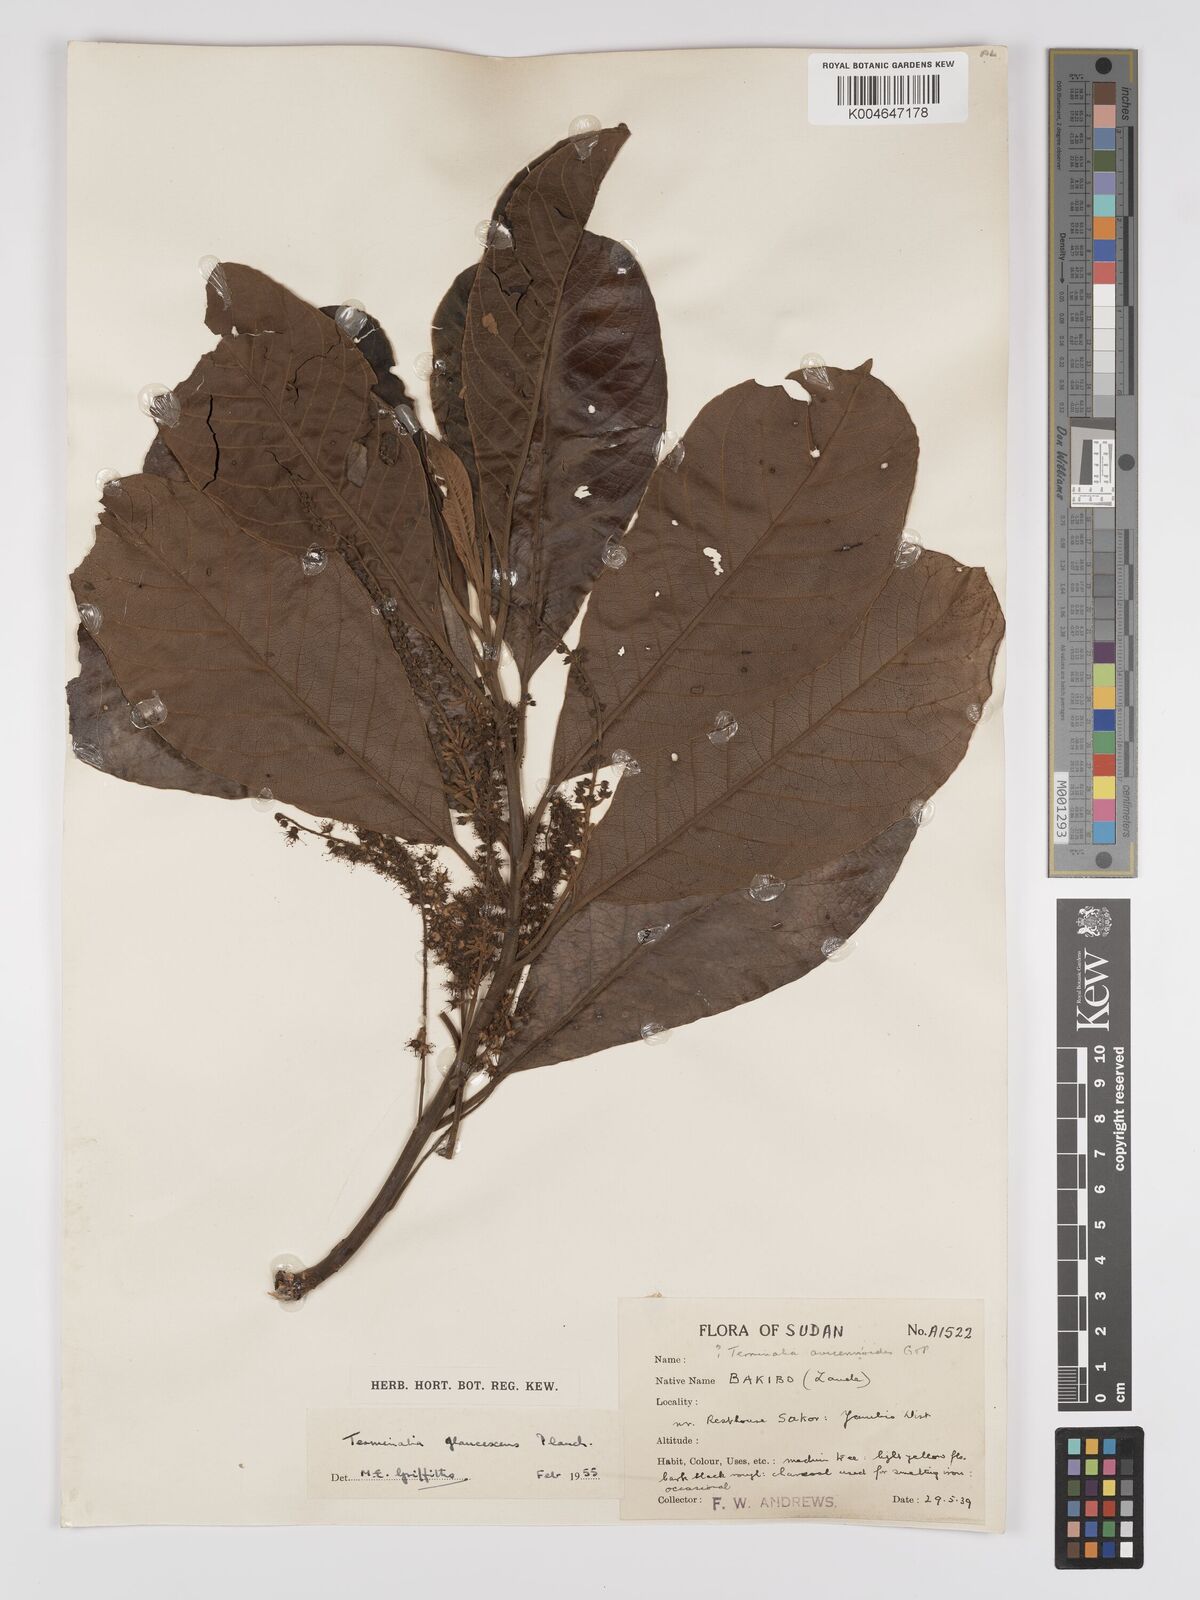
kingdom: Plantae
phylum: Tracheophyta
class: Magnoliopsida
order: Myrtales
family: Combretaceae
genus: Terminalia
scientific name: Terminalia schimperiana
